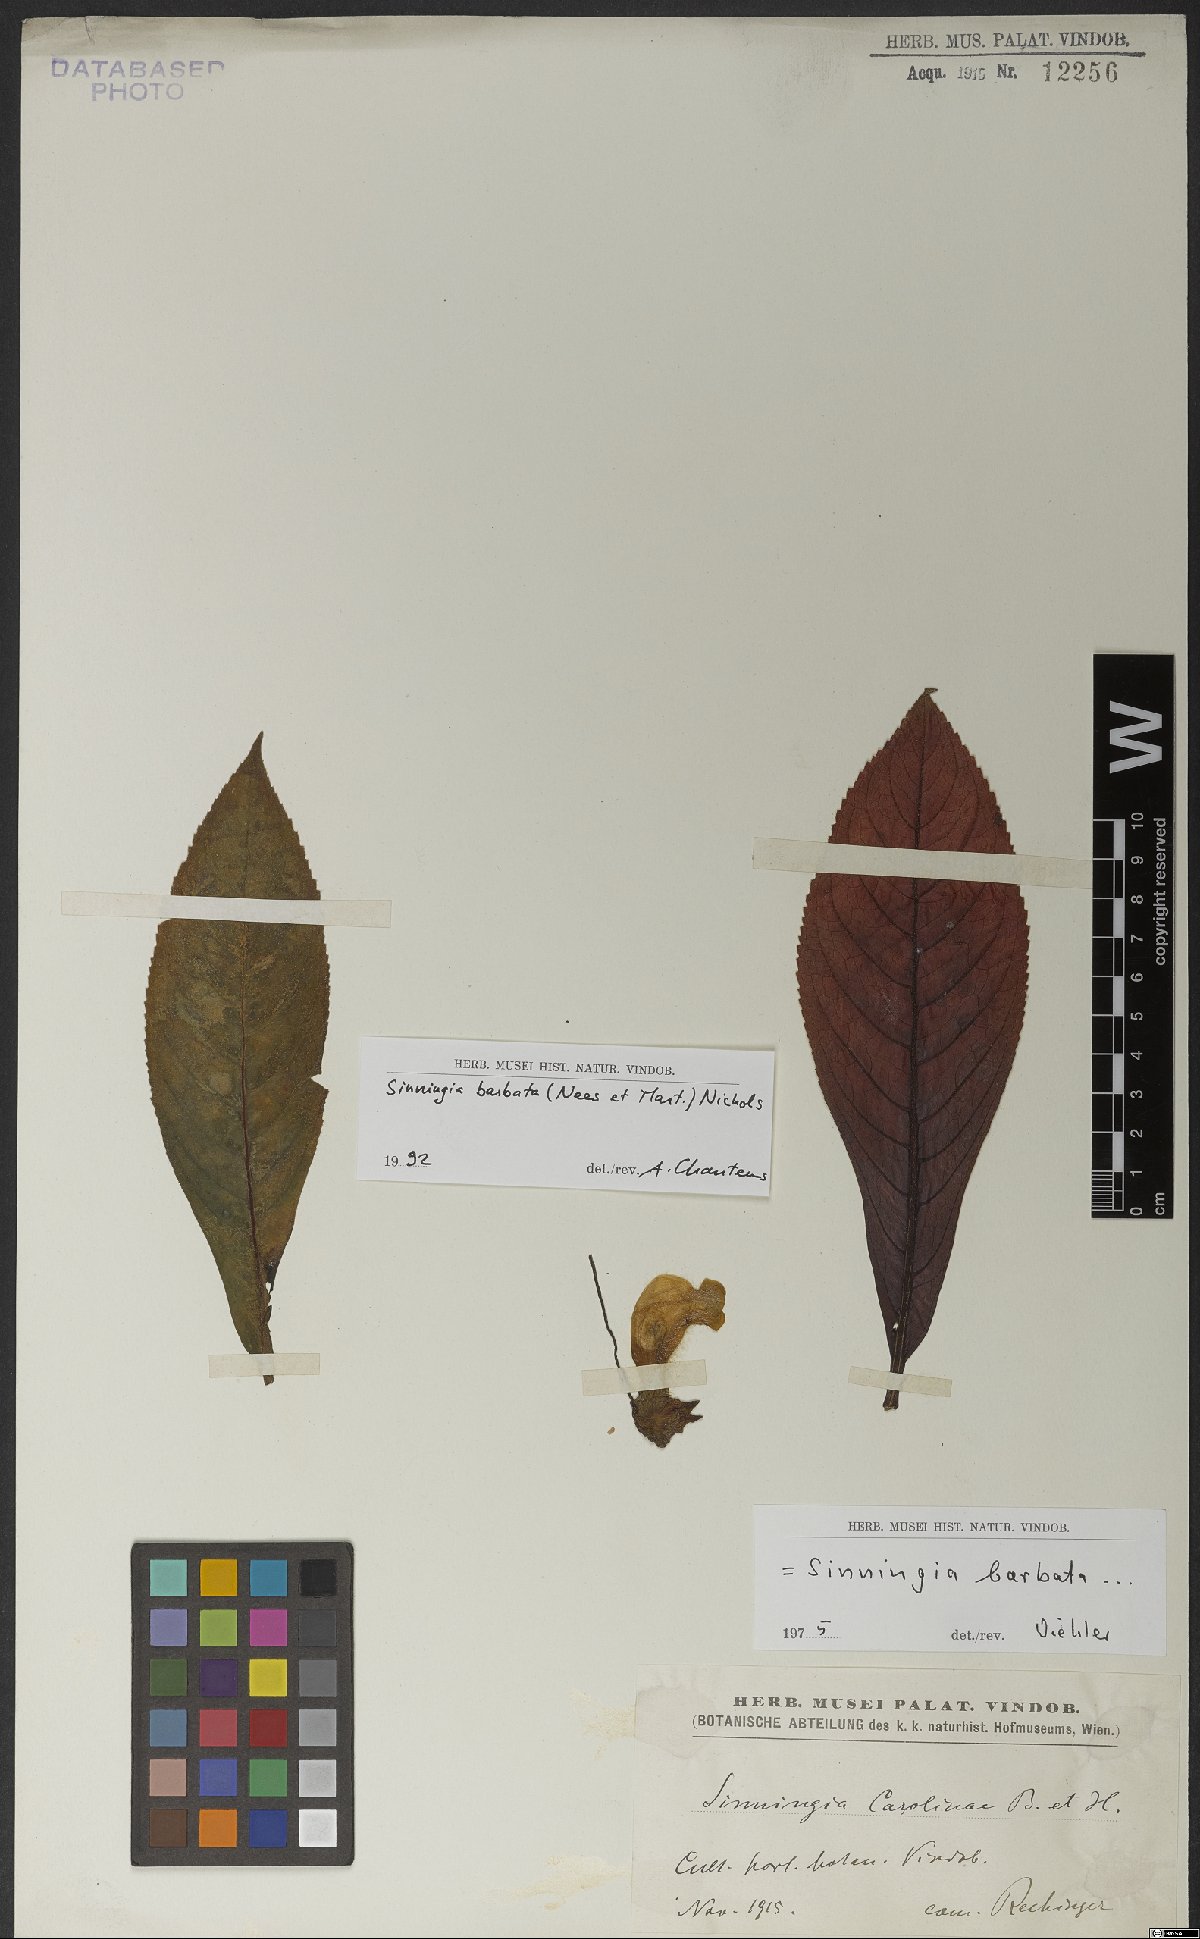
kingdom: Plantae
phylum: Tracheophyta
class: Magnoliopsida
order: Lamiales
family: Gesneriaceae
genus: Sinningia
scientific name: Sinningia barbata
